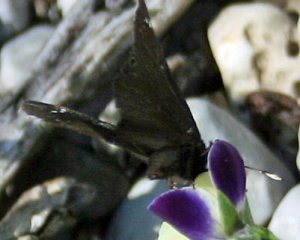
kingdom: Animalia
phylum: Arthropoda
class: Insecta
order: Lepidoptera
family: Hesperiidae
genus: Pholisora
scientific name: Pholisora catullus
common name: Common Sootywing
